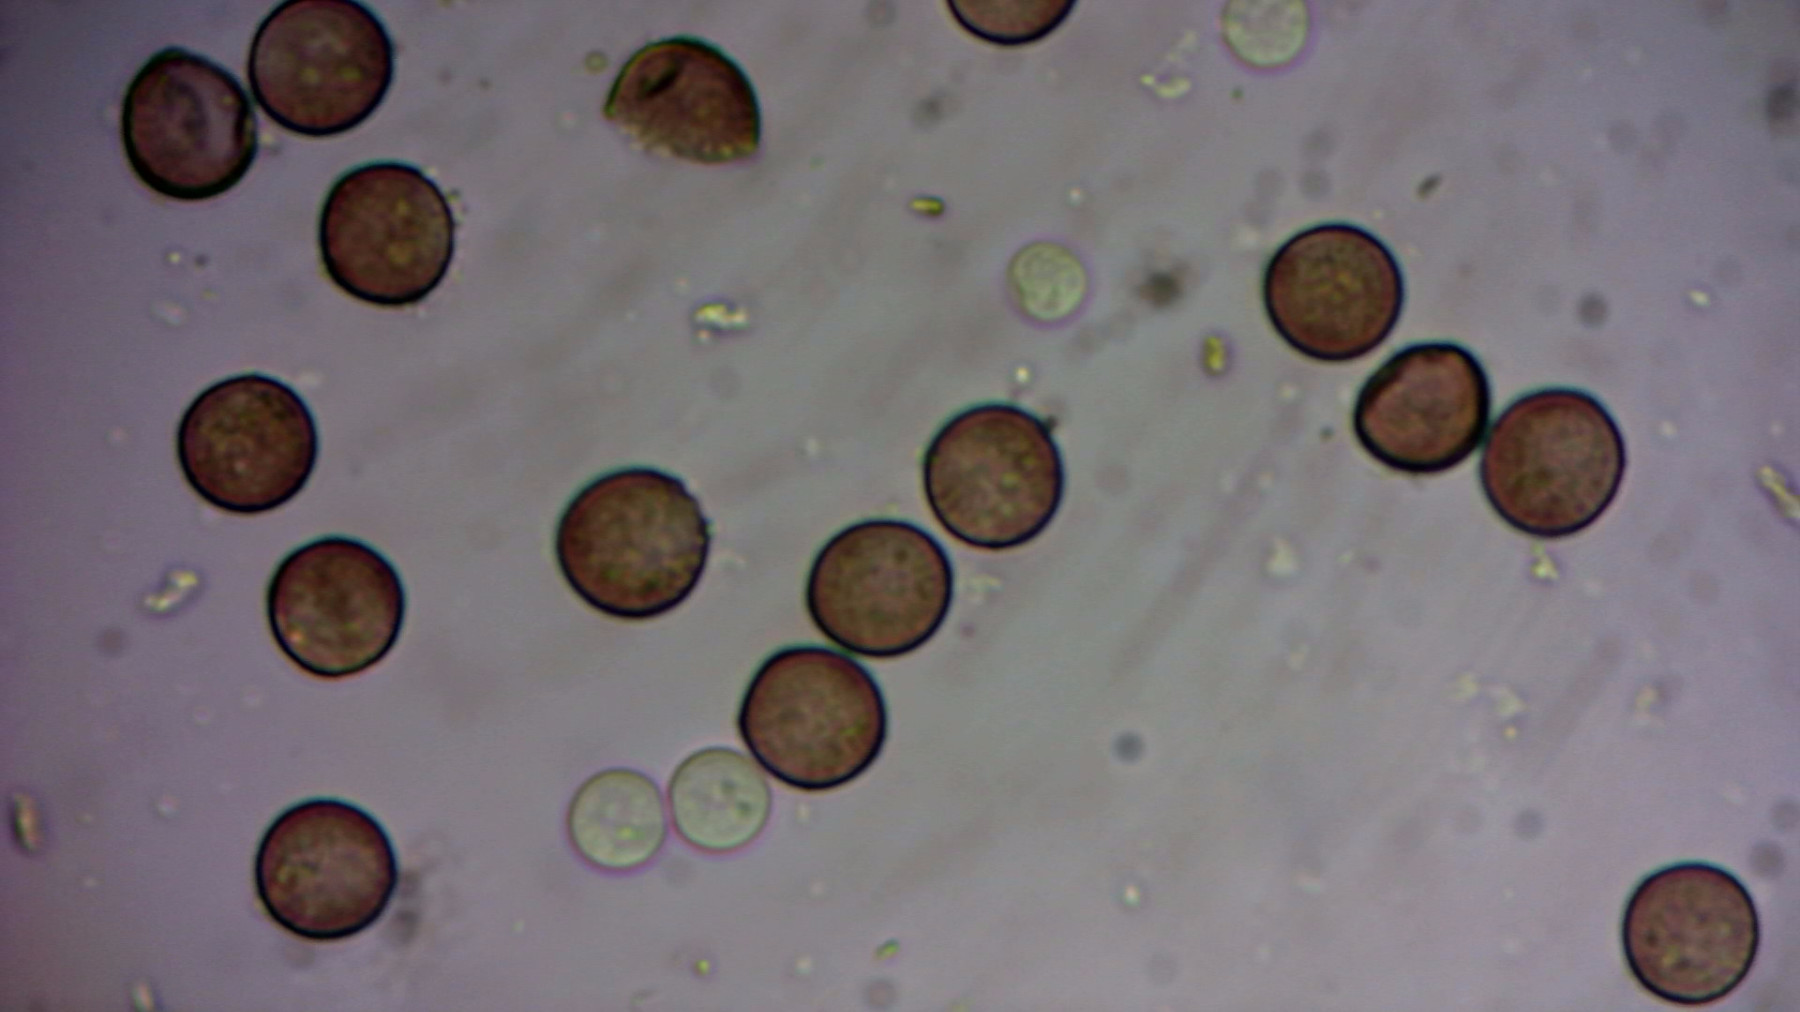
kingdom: Protozoa
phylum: Mycetozoa
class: Myxomycetes
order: Stemonitidales
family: Stemonitidaceae
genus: Enerthenema
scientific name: Enerthenema papillatum
